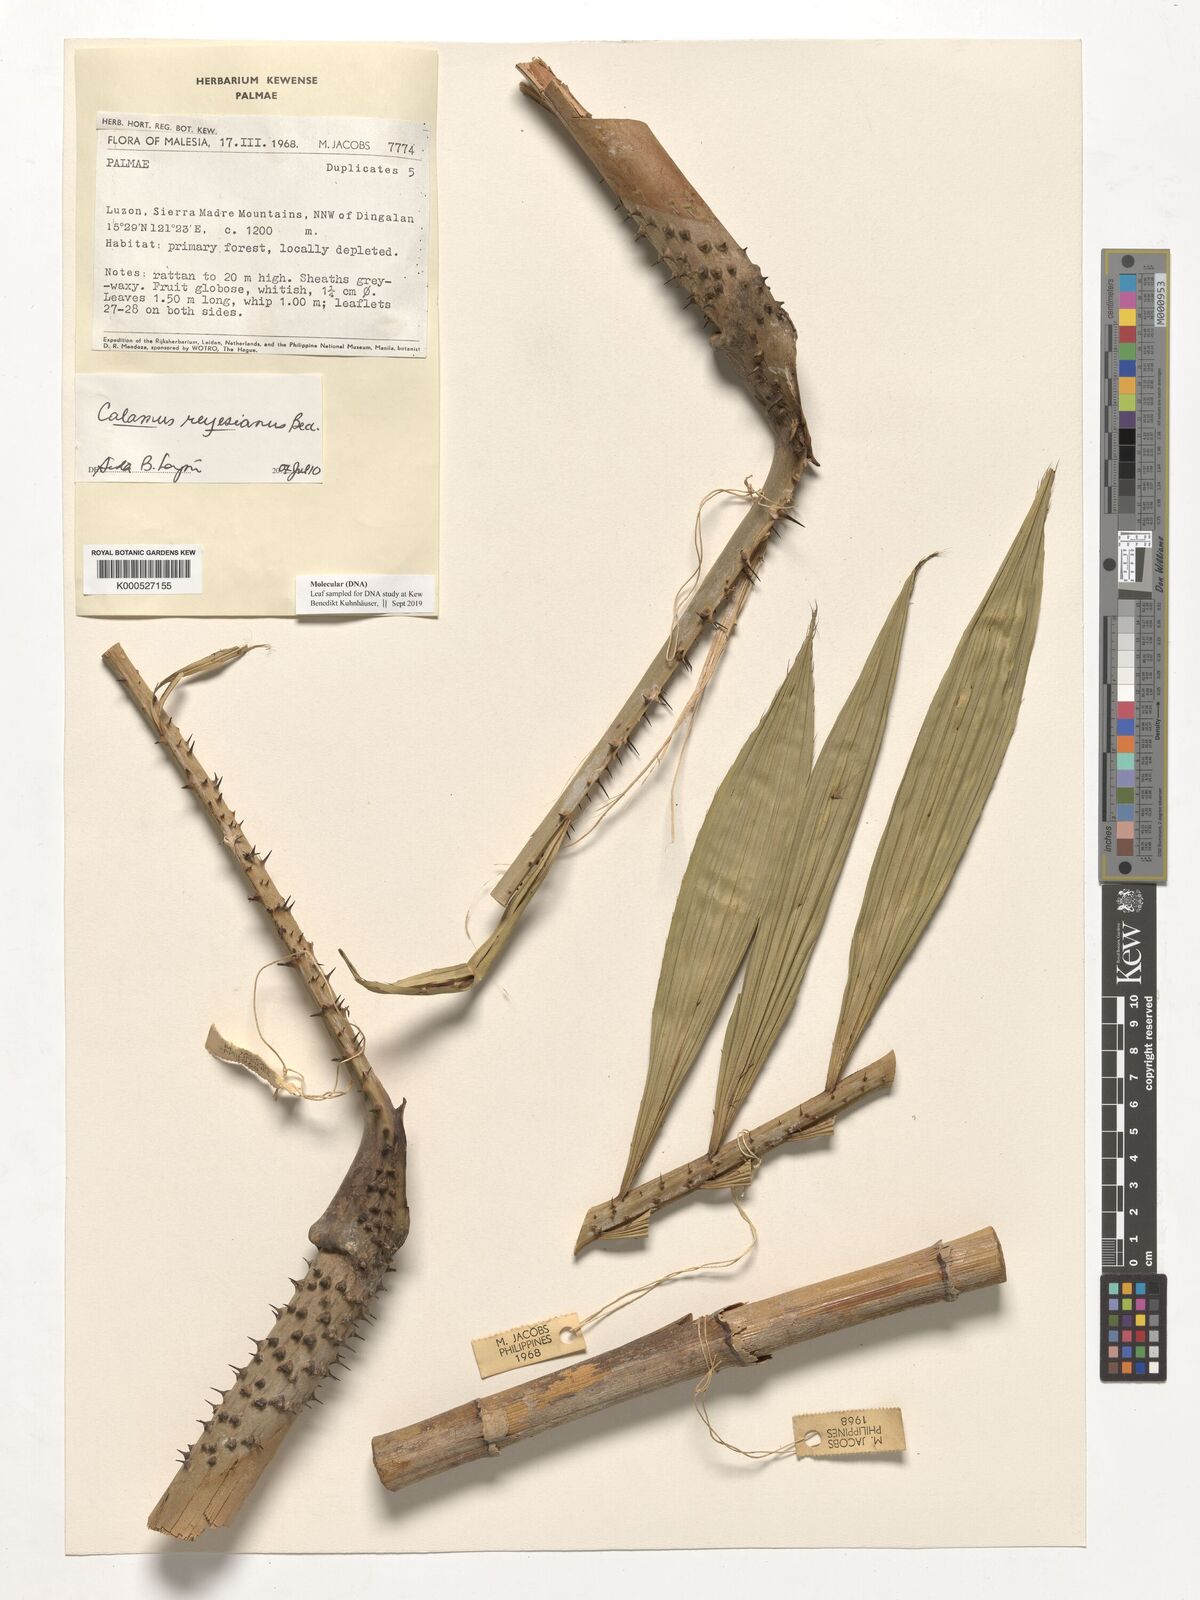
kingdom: Plantae
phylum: Tracheophyta
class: Liliopsida
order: Arecales
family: Arecaceae
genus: Calamus
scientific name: Calamus moseleyanus
